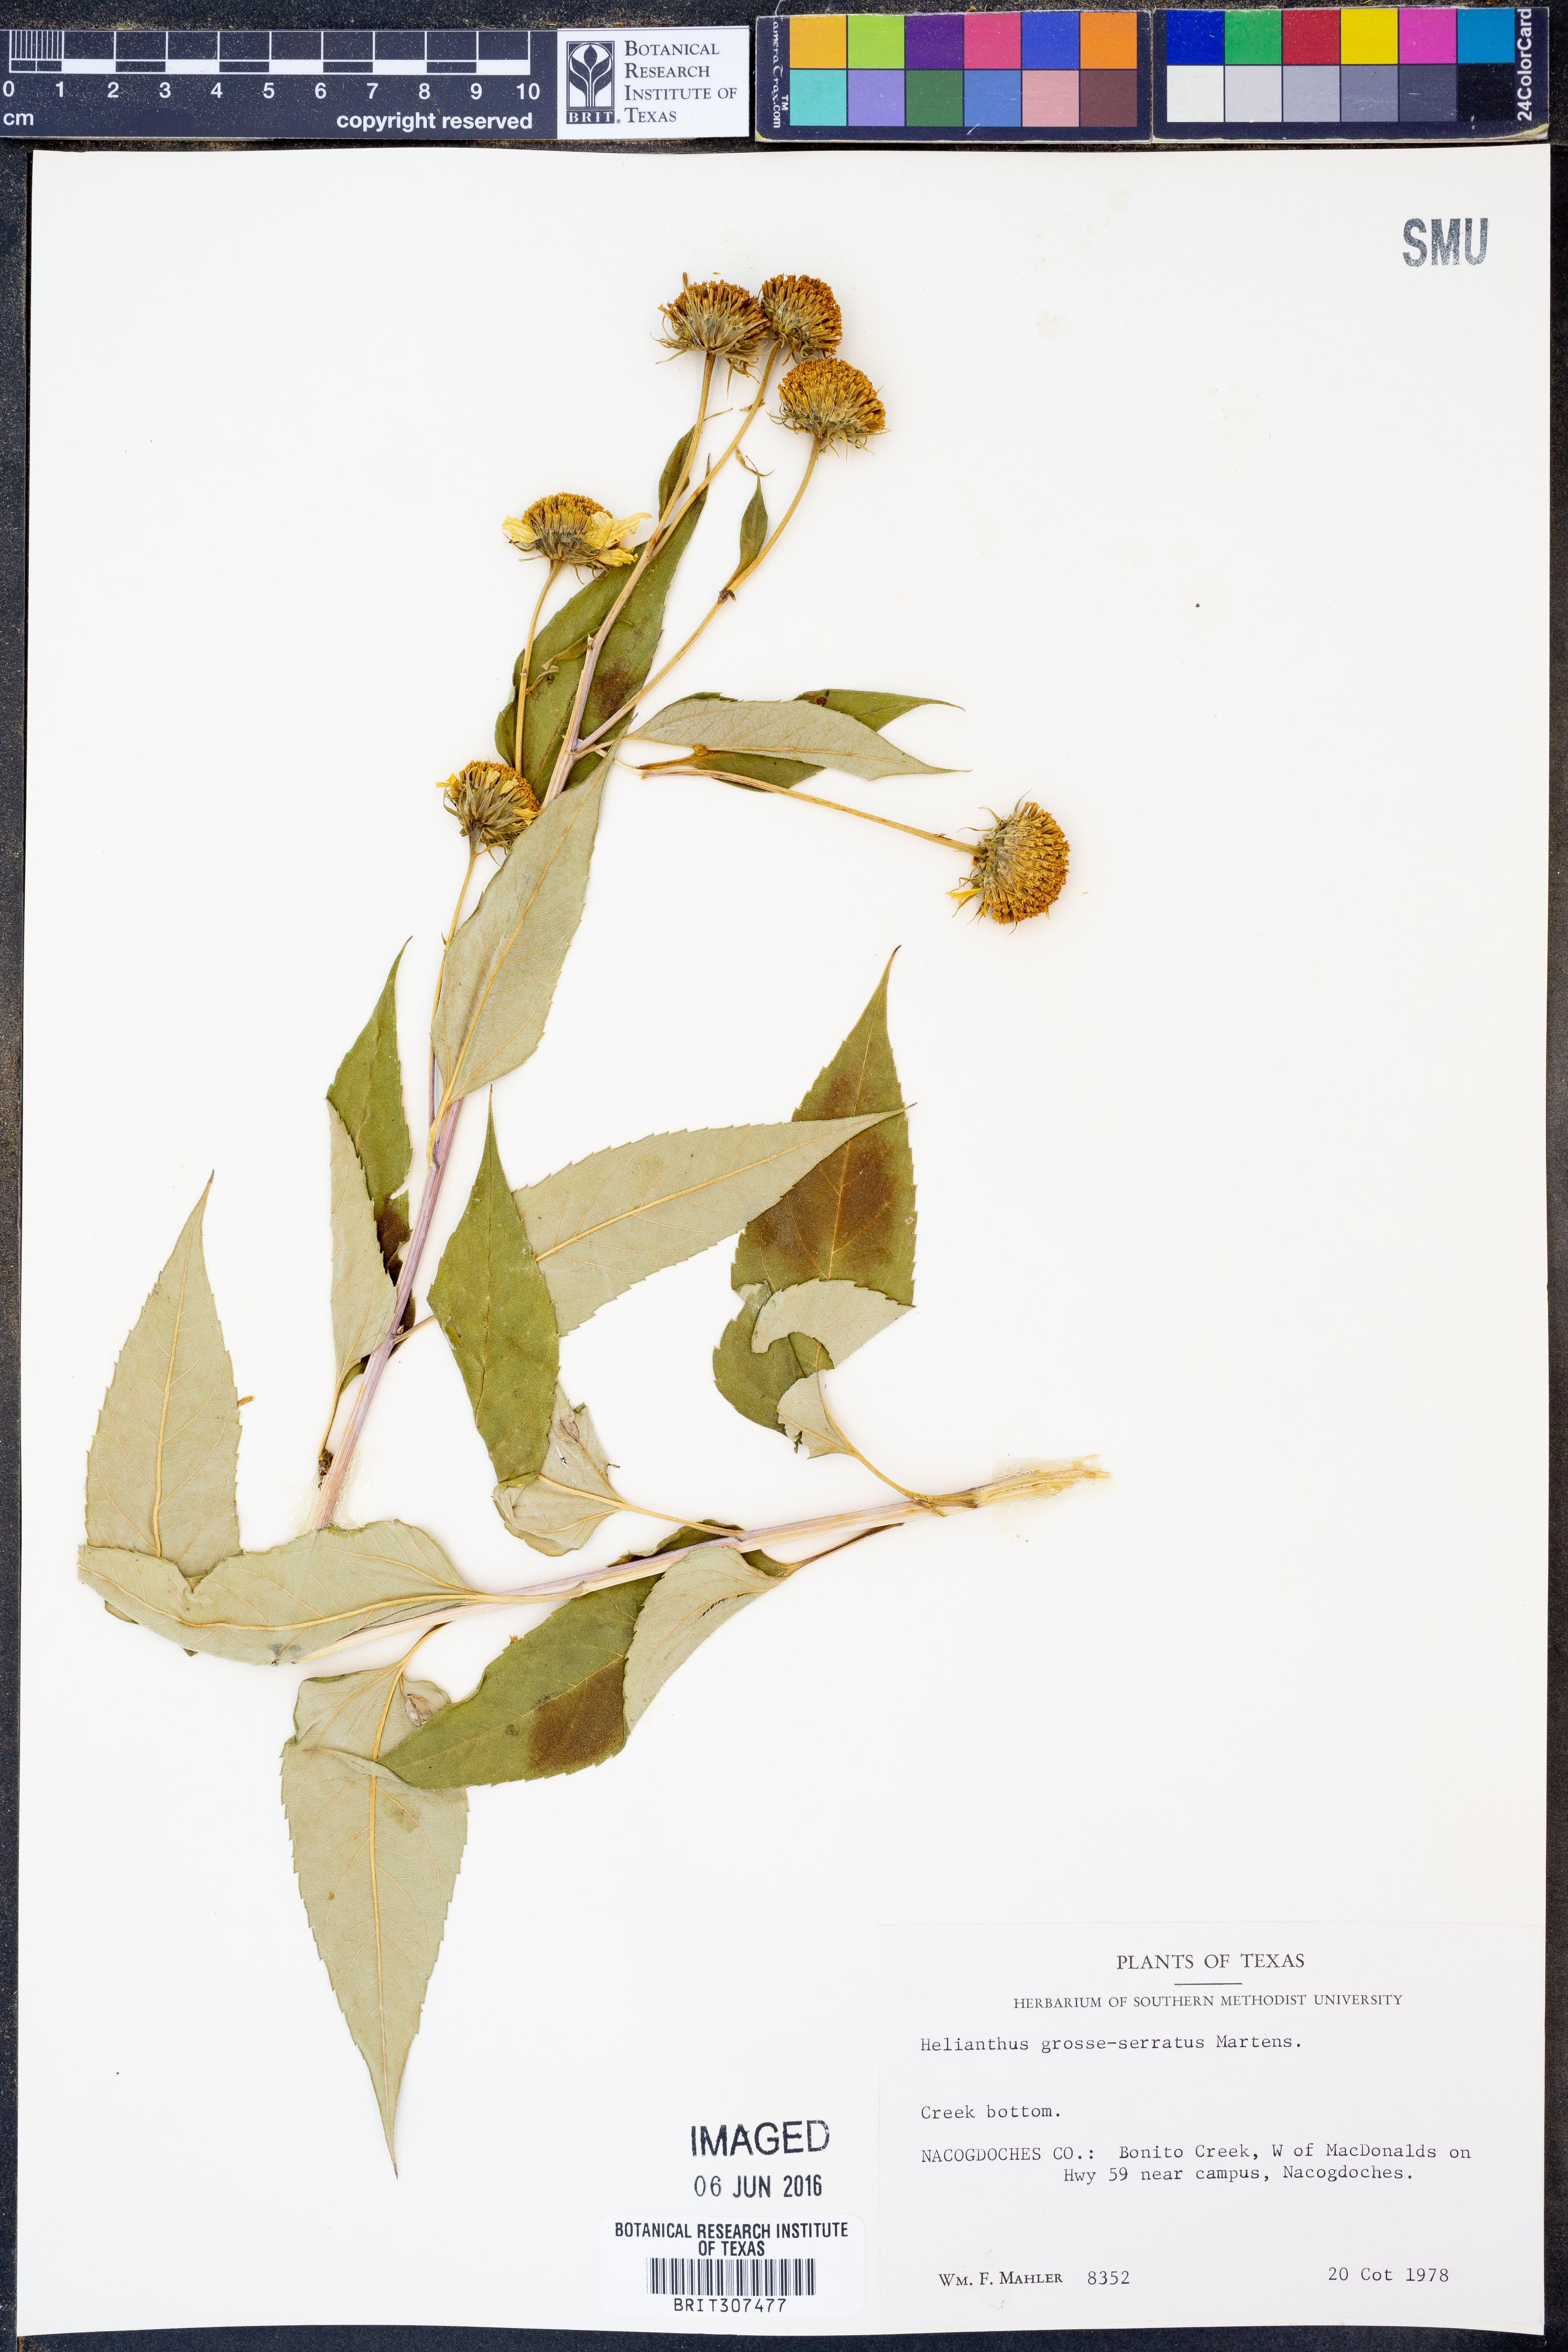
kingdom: Plantae
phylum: Tracheophyta
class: Magnoliopsida
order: Asterales
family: Asteraceae
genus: Helianthus
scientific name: Helianthus grosseserratus
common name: Sawtooth sunflower
